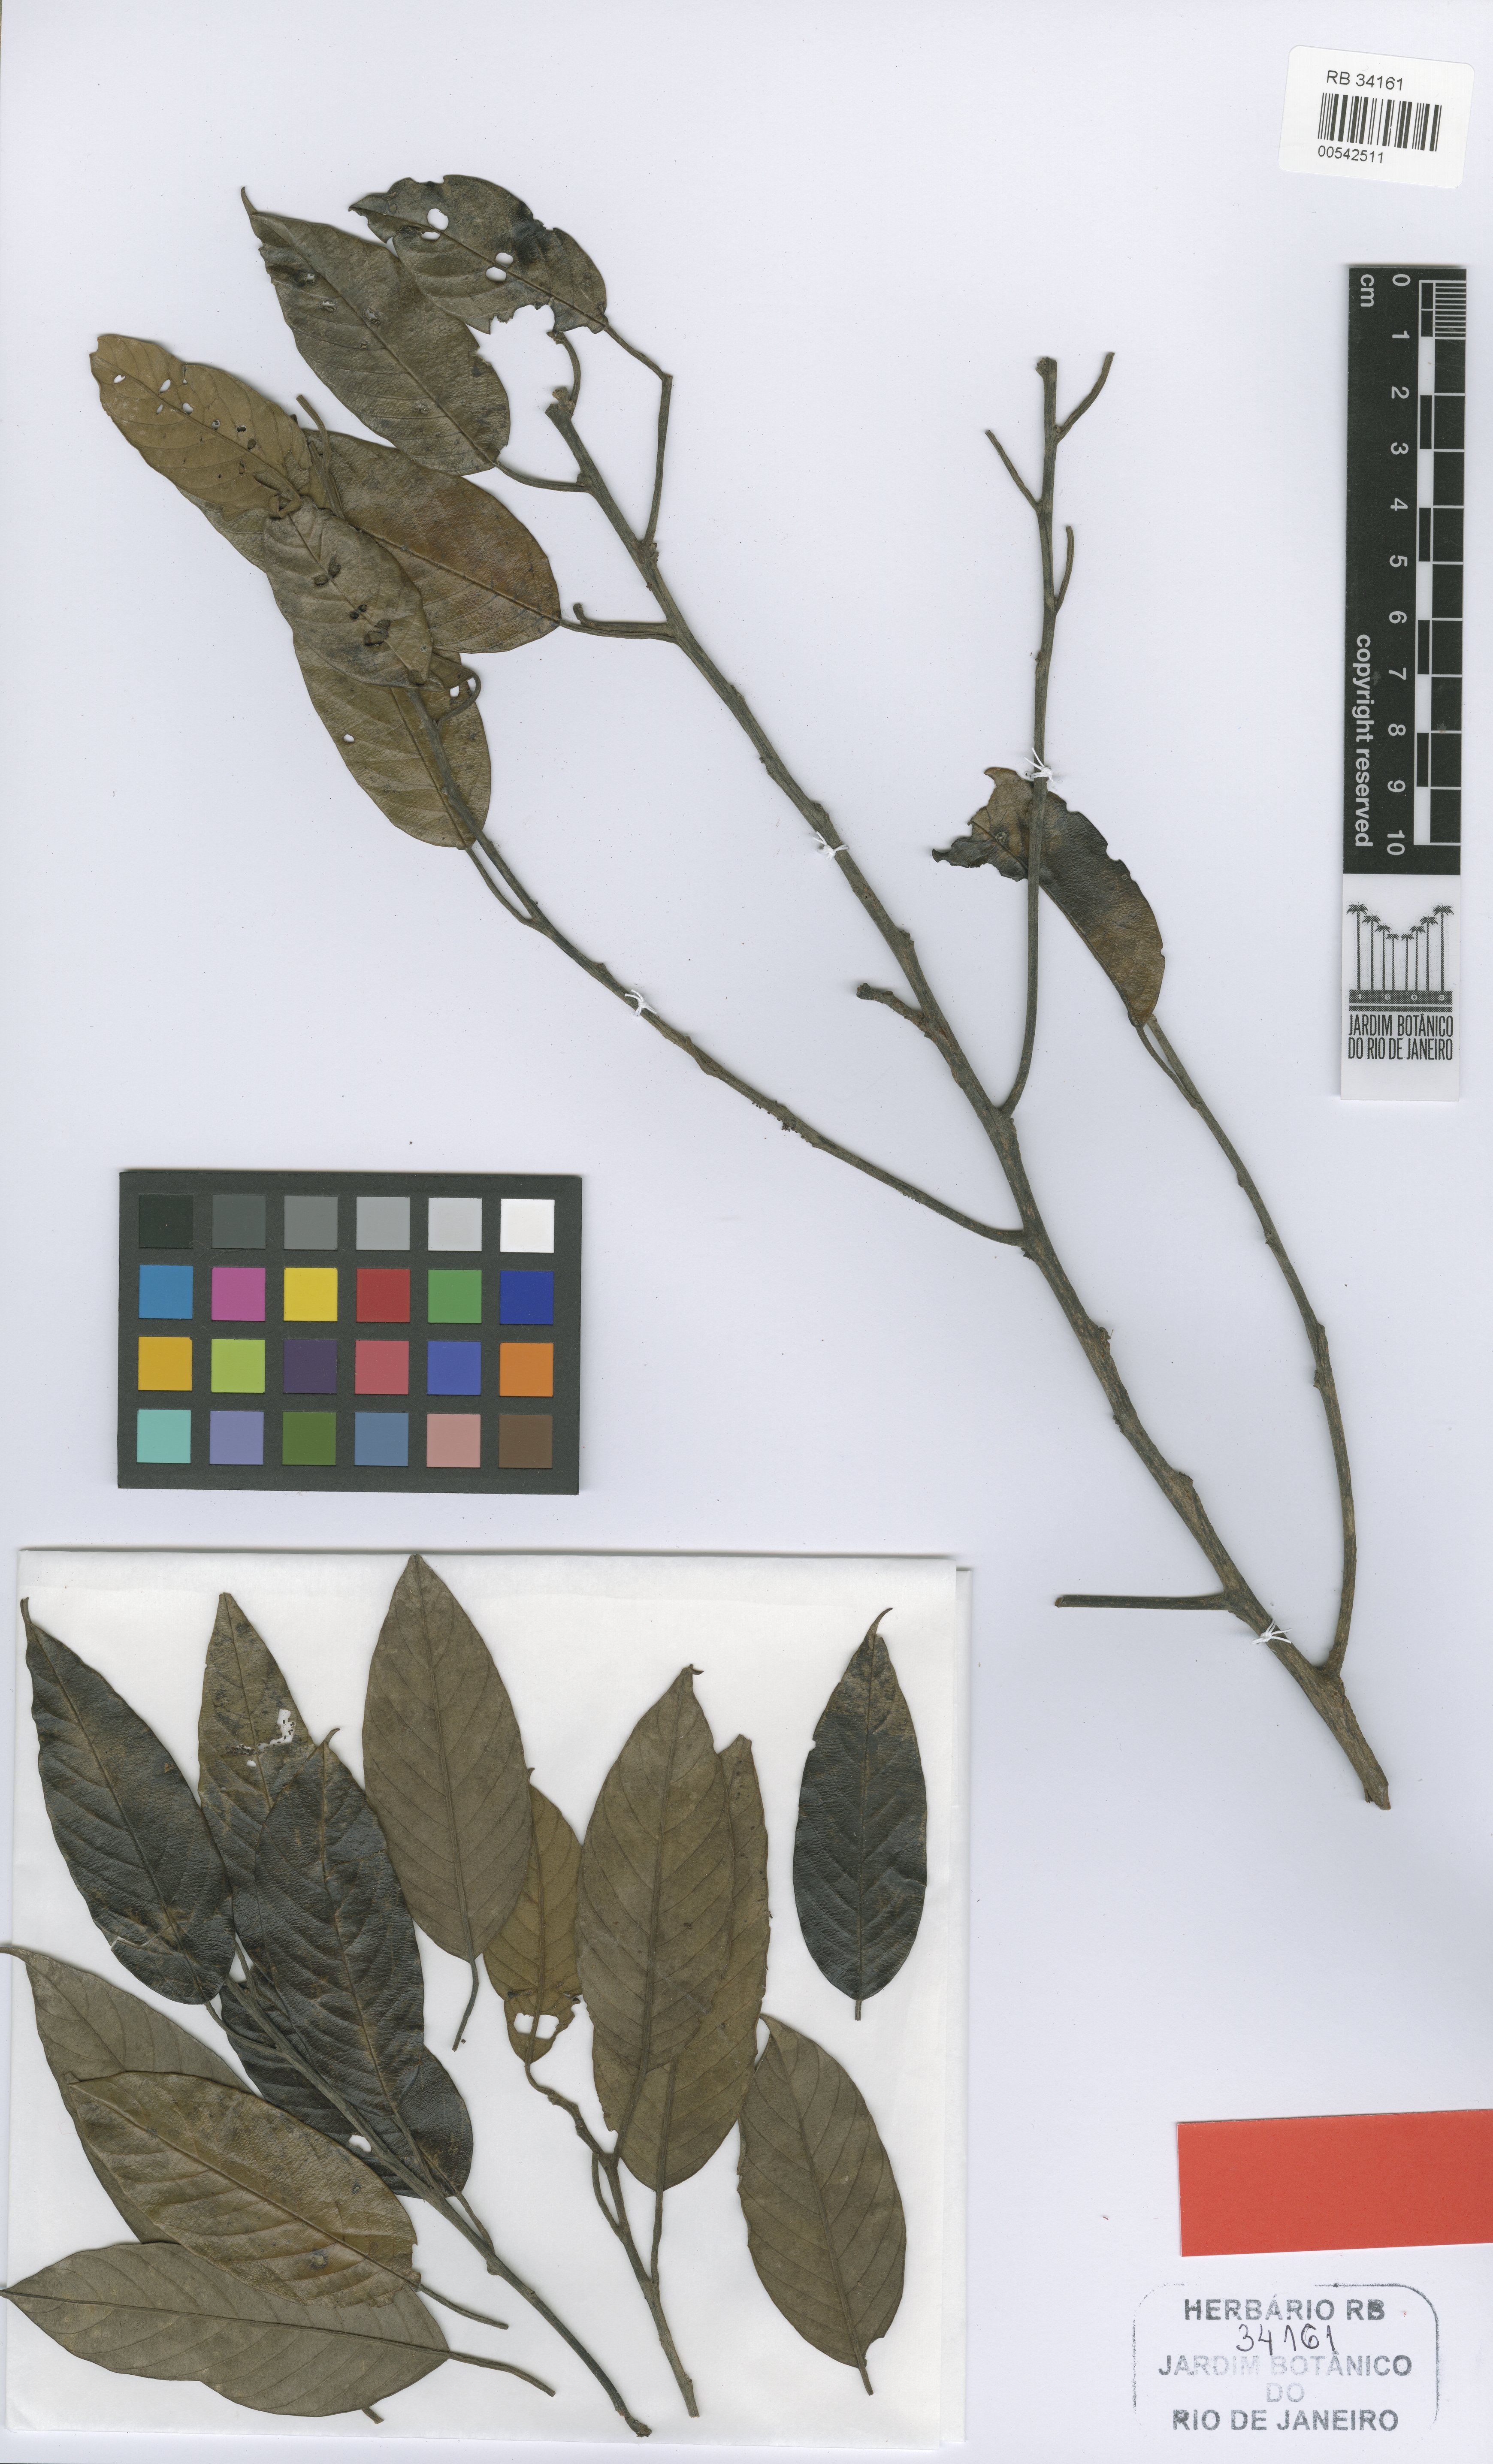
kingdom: Plantae
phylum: Tracheophyta
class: Magnoliopsida
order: Metteniusales
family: Metteniusaceae
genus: Emmotum
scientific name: Emmotum nitens
